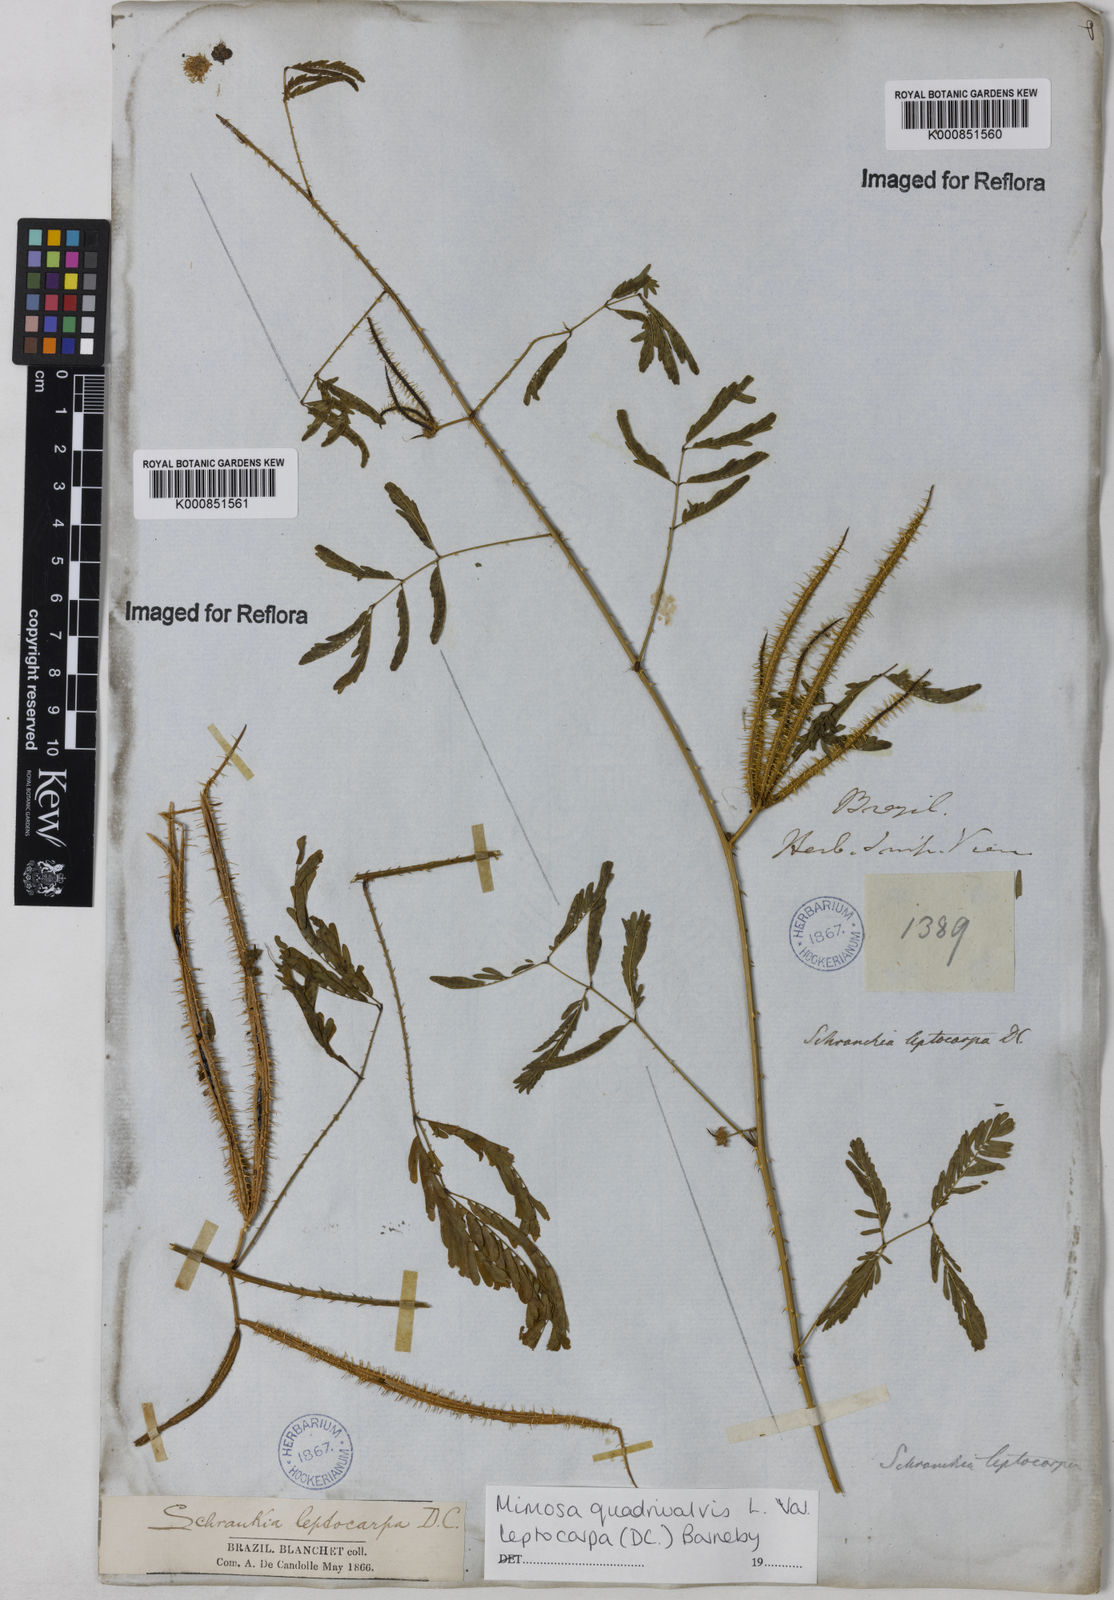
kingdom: Plantae
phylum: Tracheophyta
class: Magnoliopsida
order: Fabales
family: Fabaceae
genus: Mimosa
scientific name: Mimosa candollei
